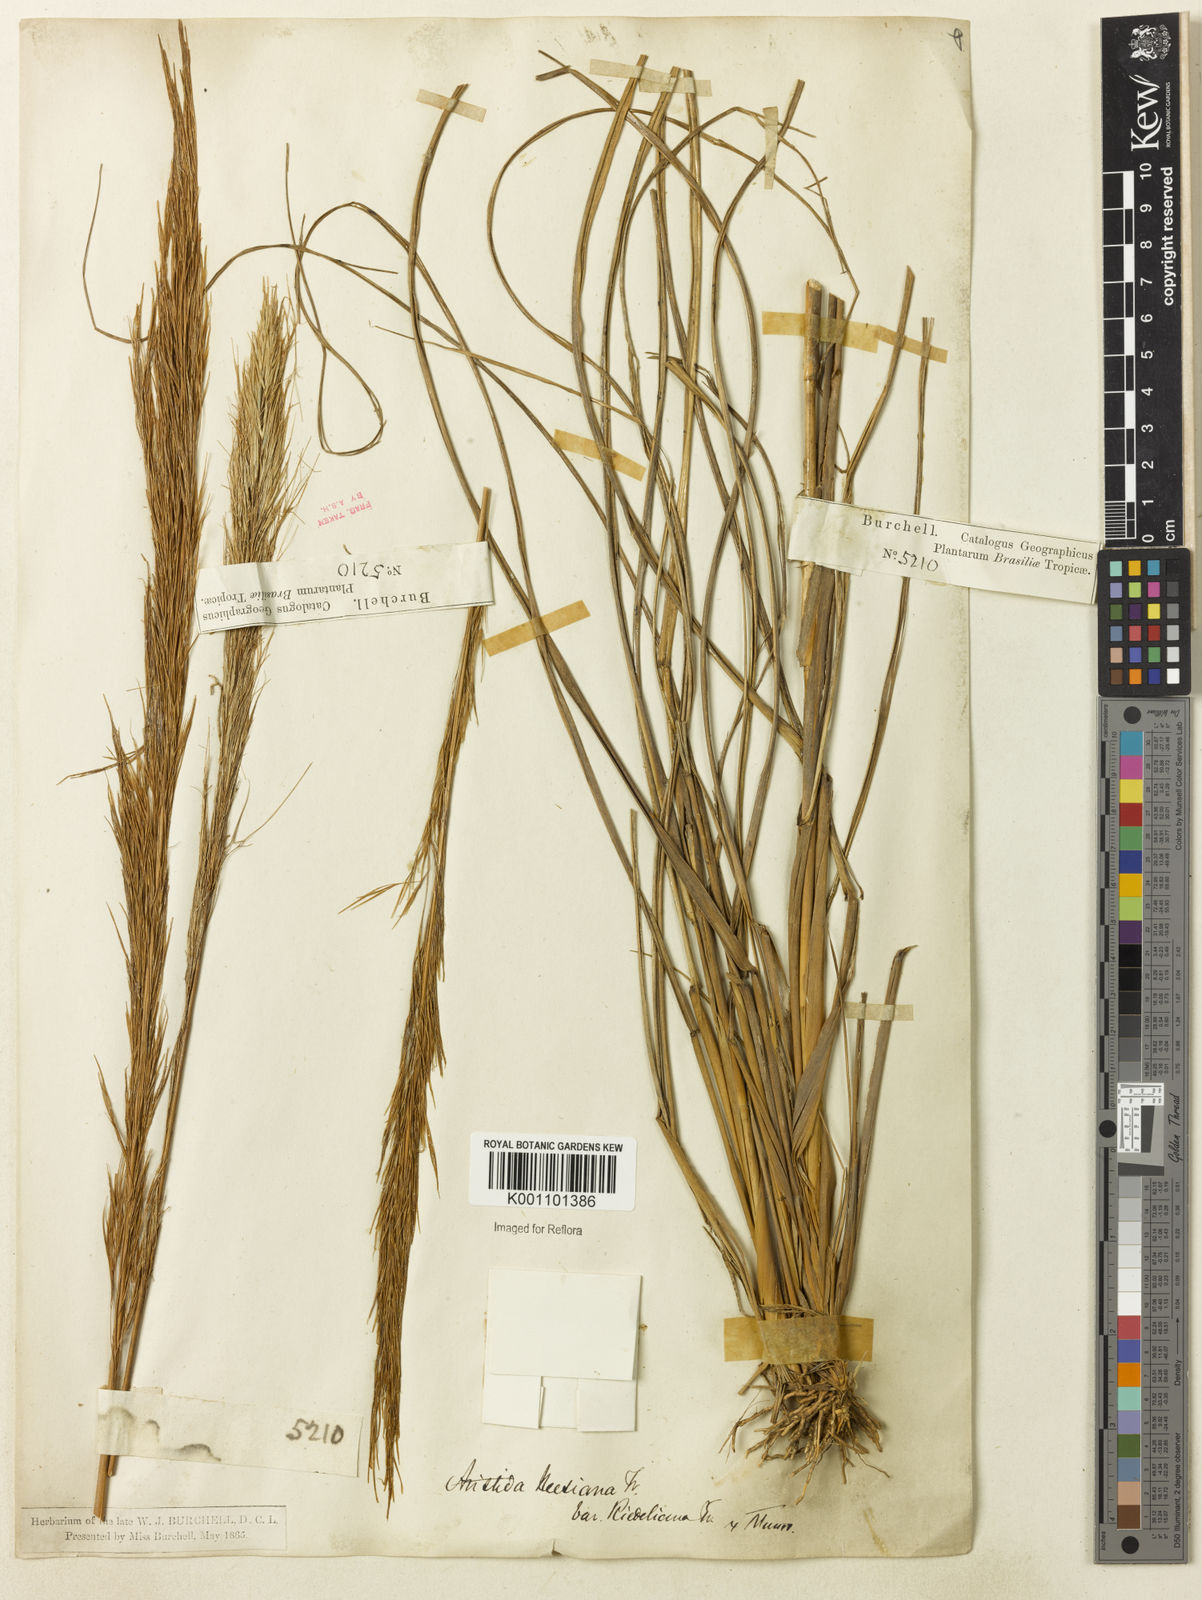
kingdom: Plantae
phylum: Tracheophyta
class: Liliopsida
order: Poales
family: Poaceae
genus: Aristida
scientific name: Aristida
